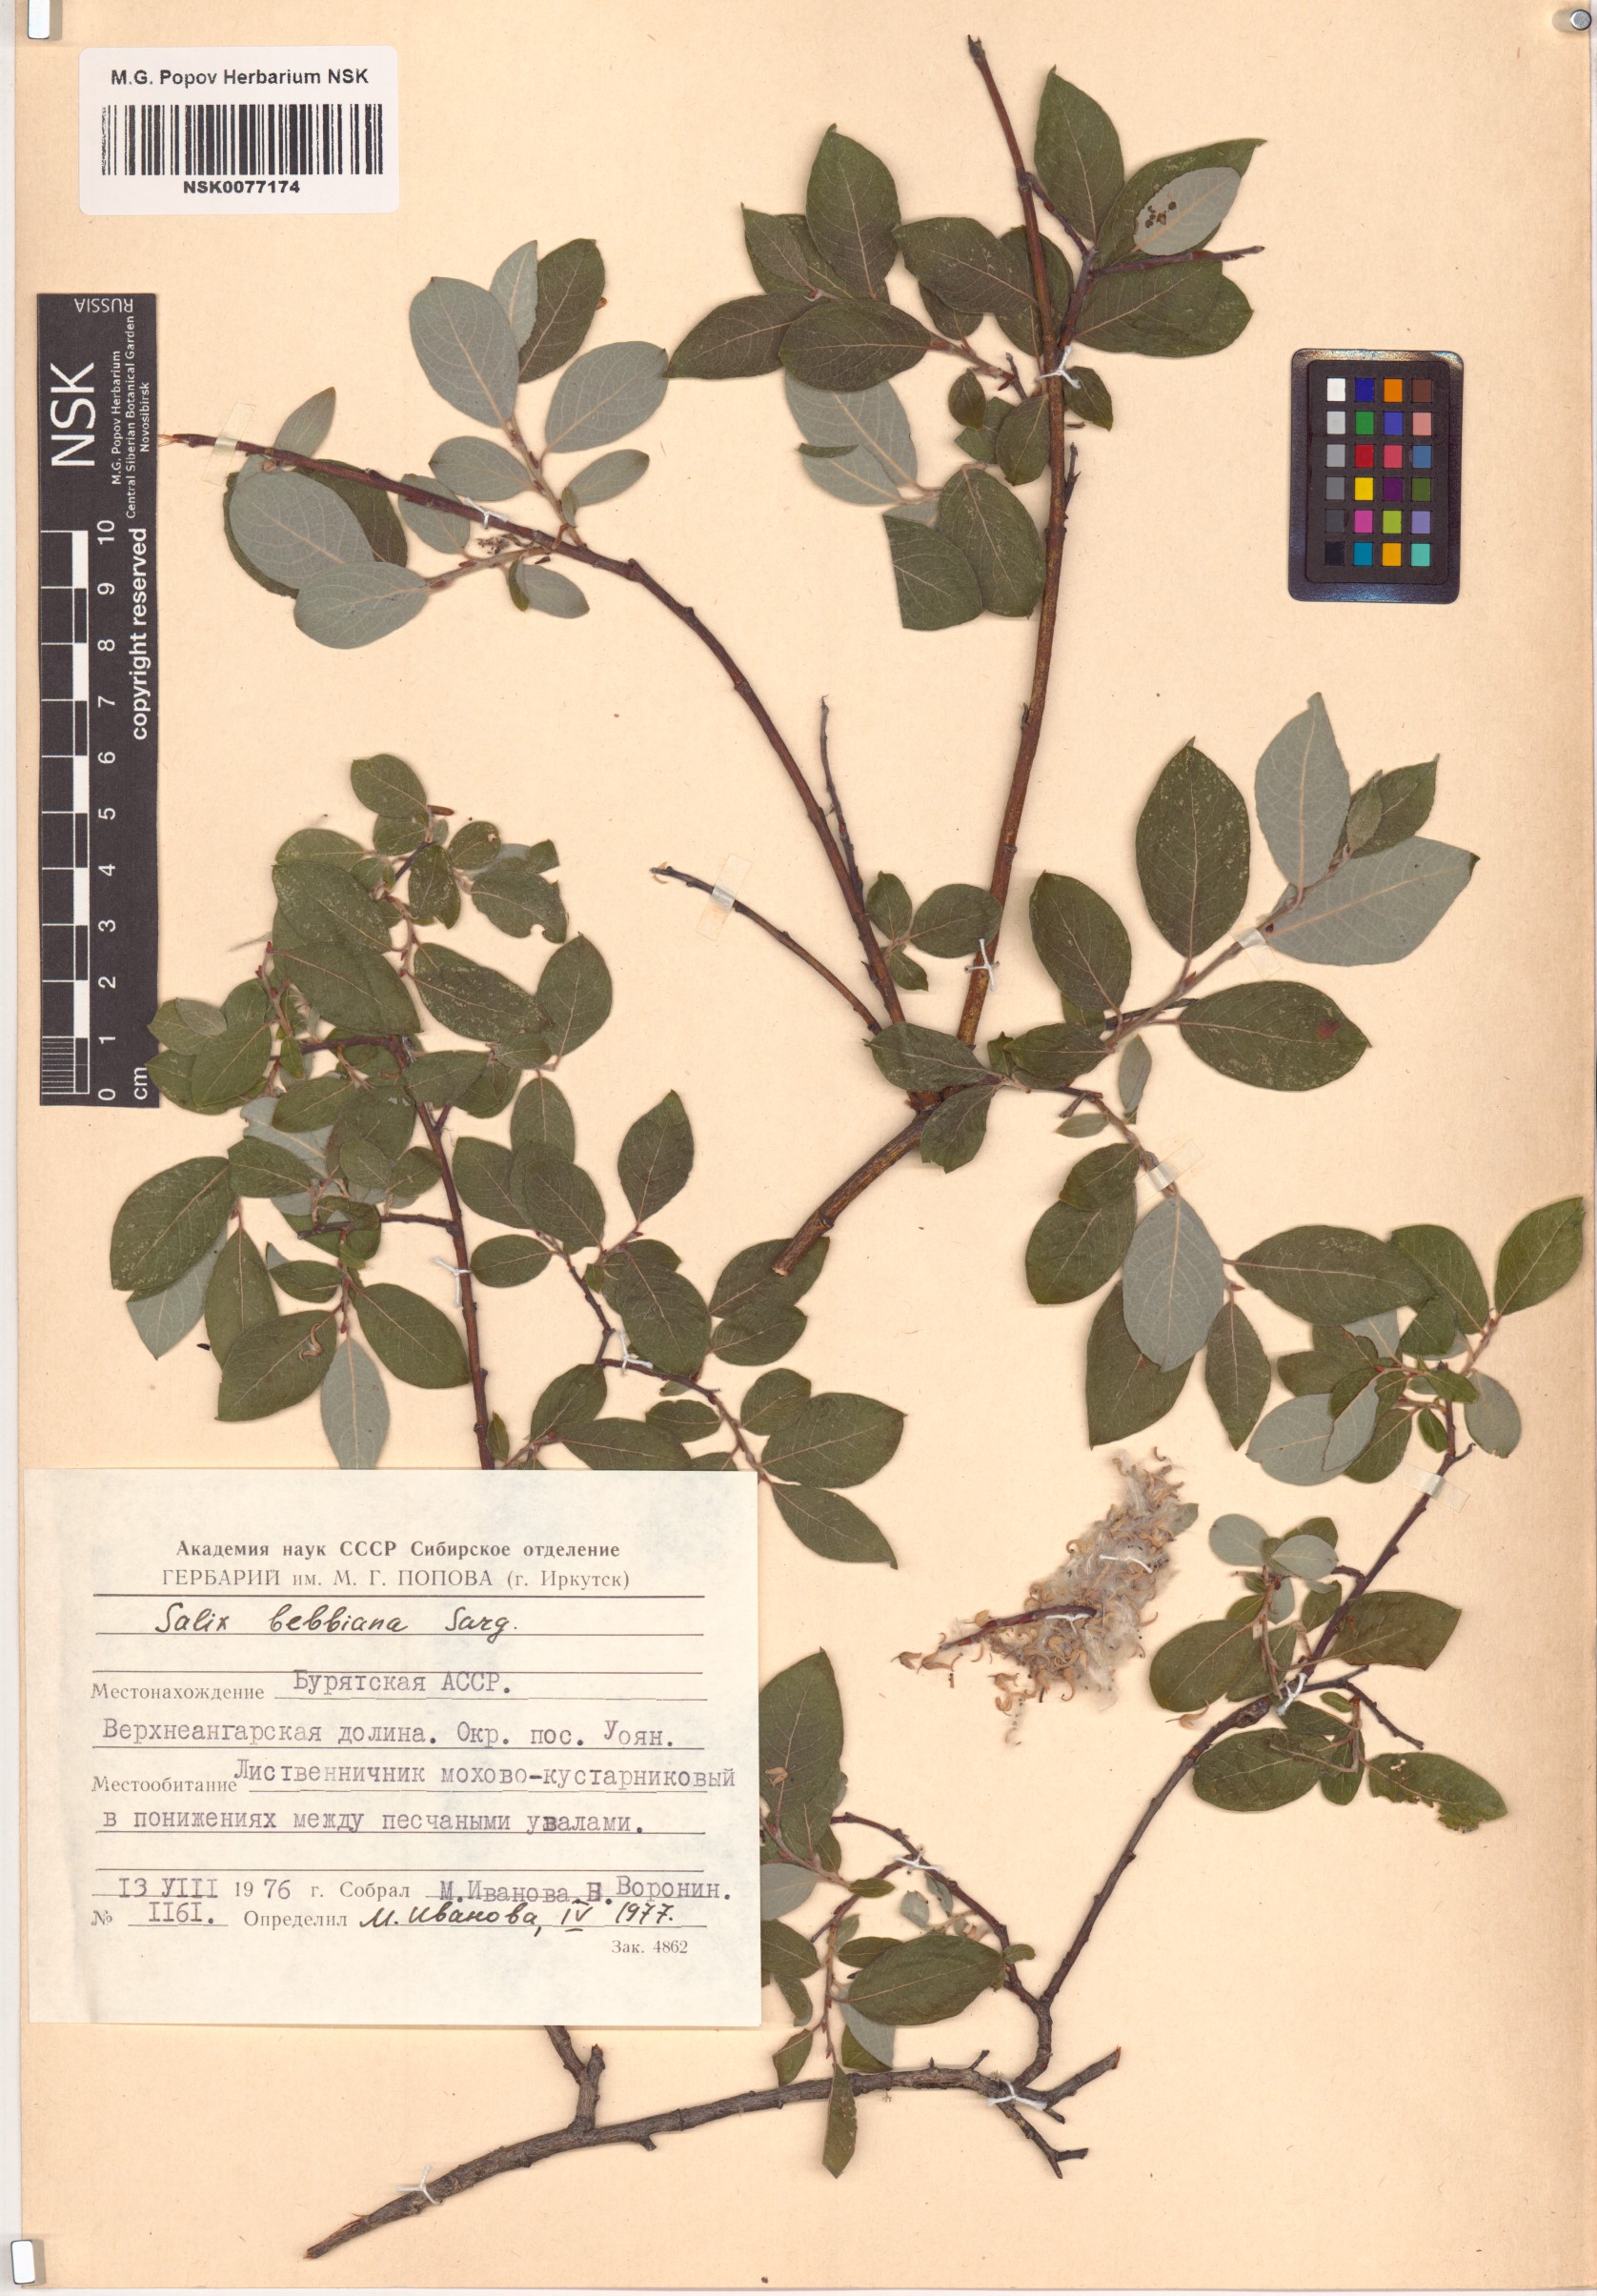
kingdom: Plantae
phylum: Tracheophyta
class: Magnoliopsida
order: Malpighiales
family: Salicaceae
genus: Salix
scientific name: Salix bebbiana
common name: Bebb's willow
